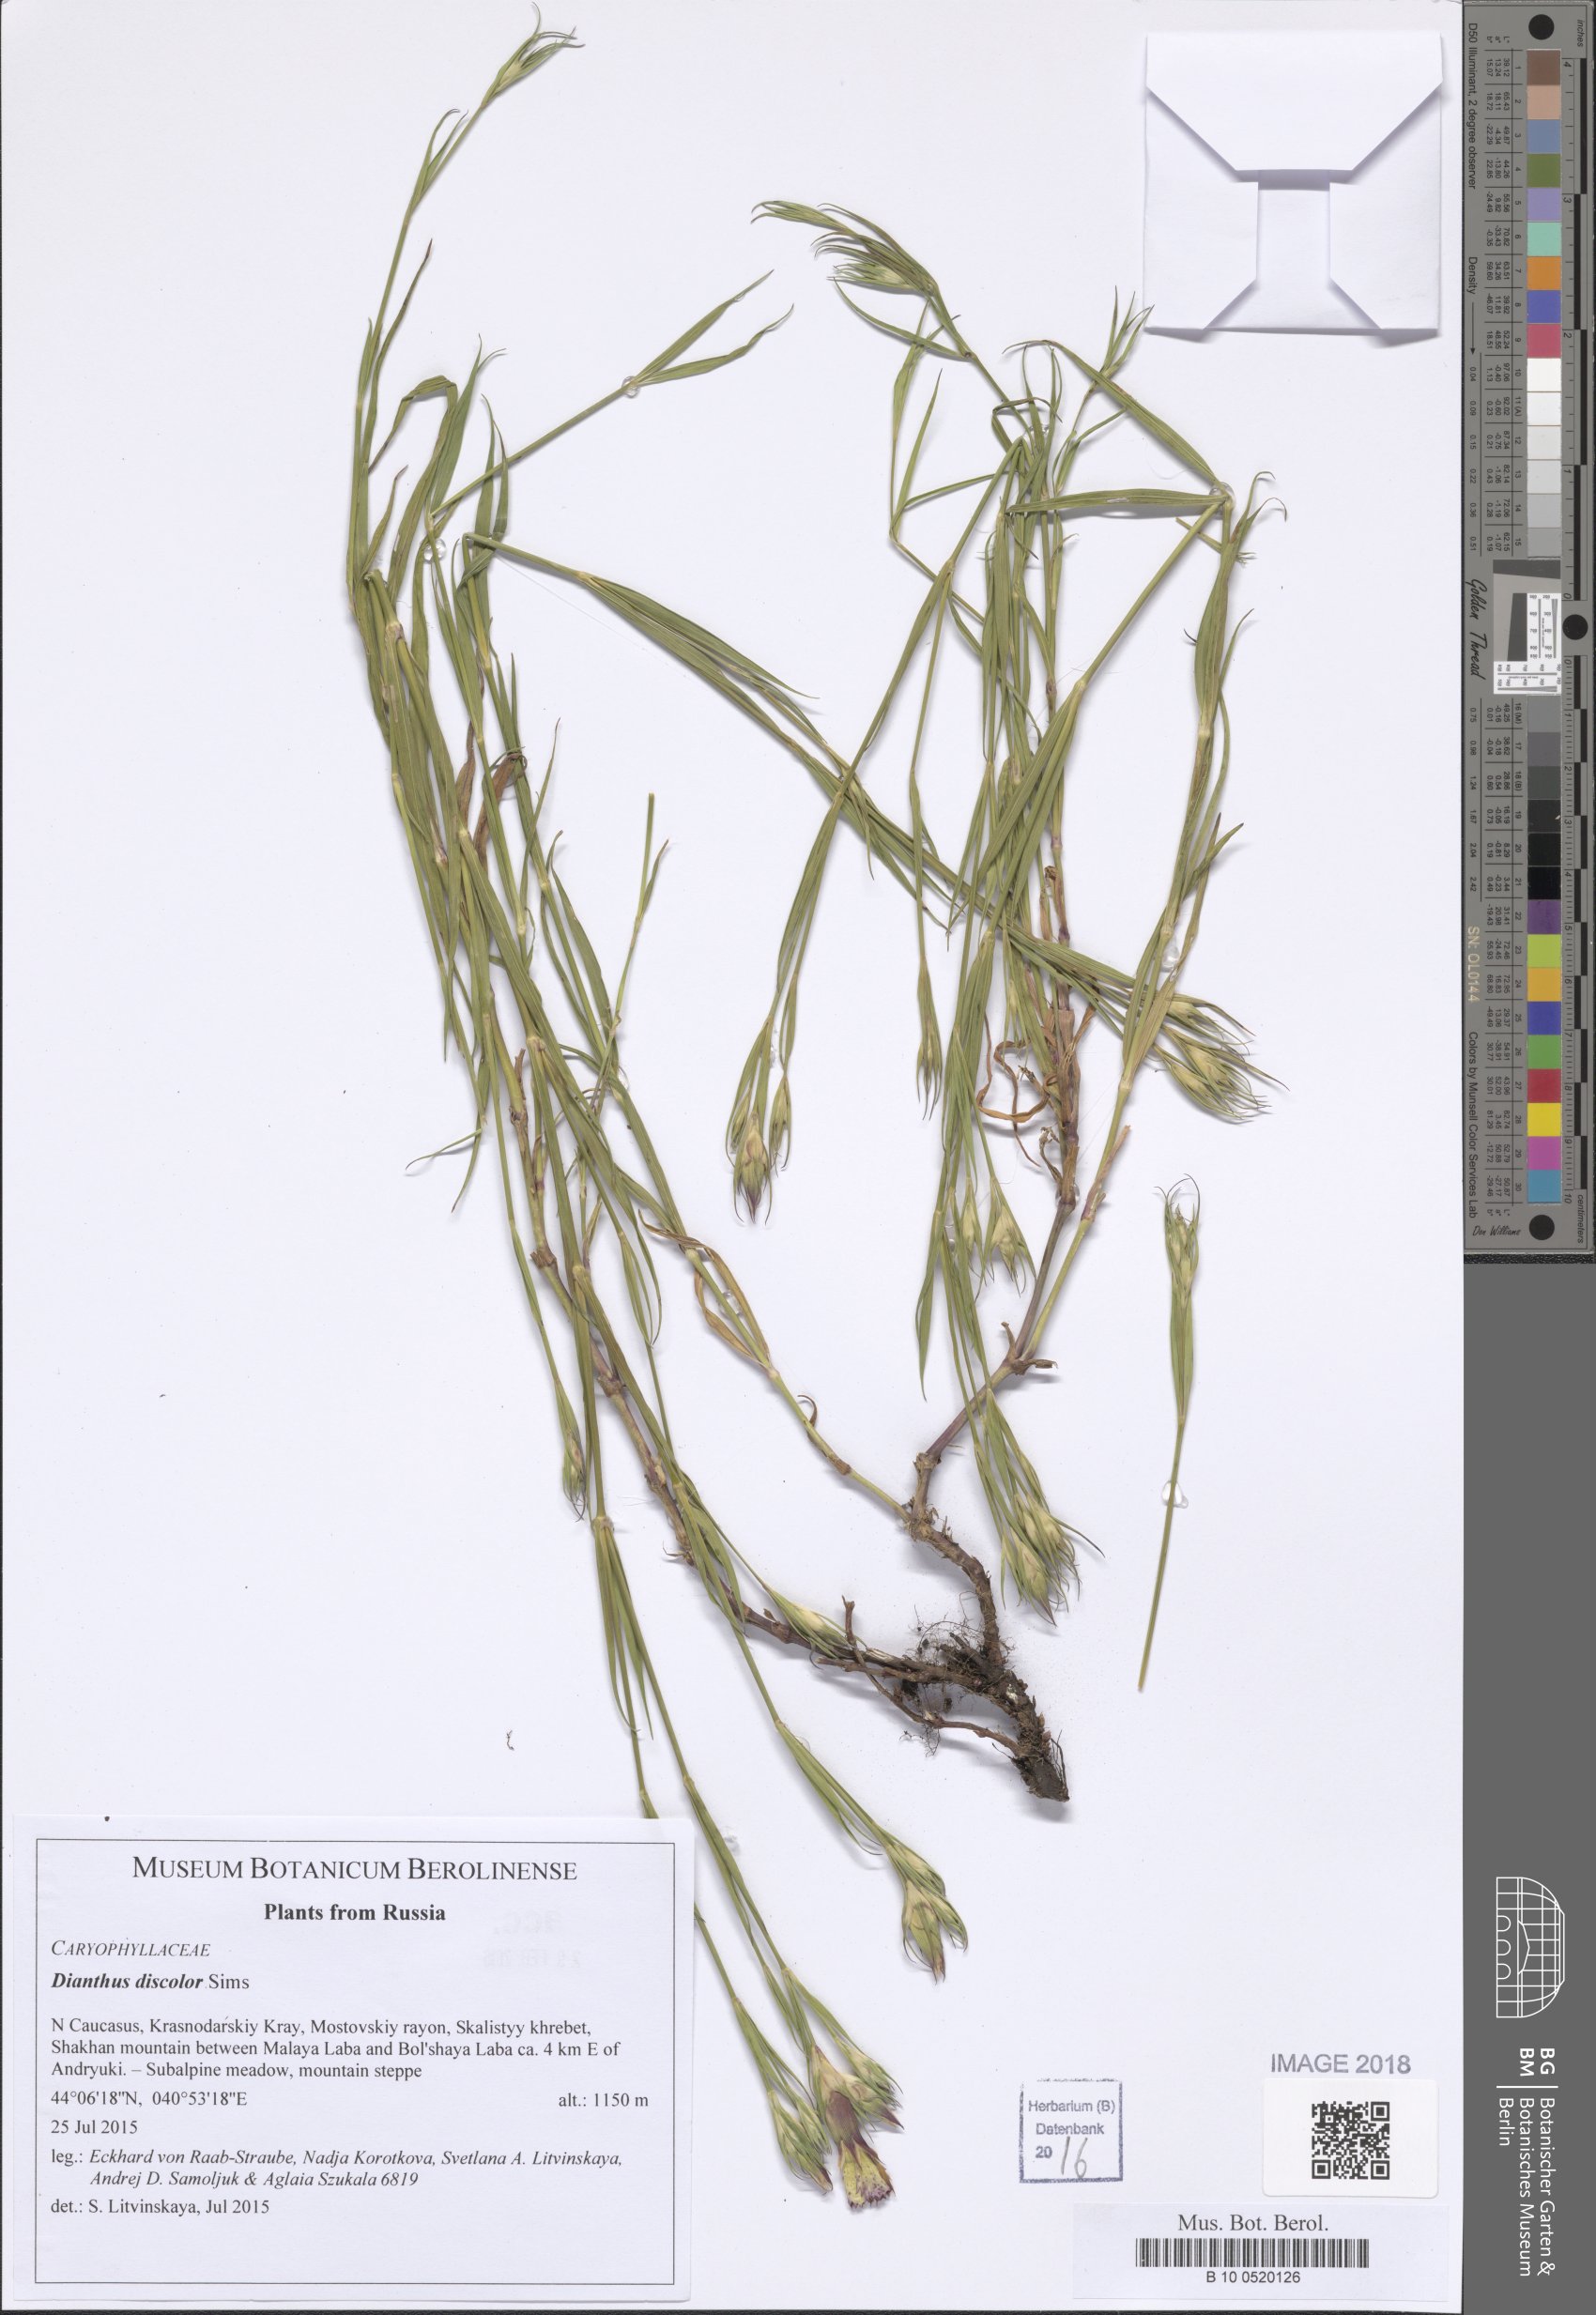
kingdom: Plantae
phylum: Tracheophyta
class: Magnoliopsida
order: Caryophyllales
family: Caryophyllaceae
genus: Dianthus
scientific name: Dianthus caucaseus
